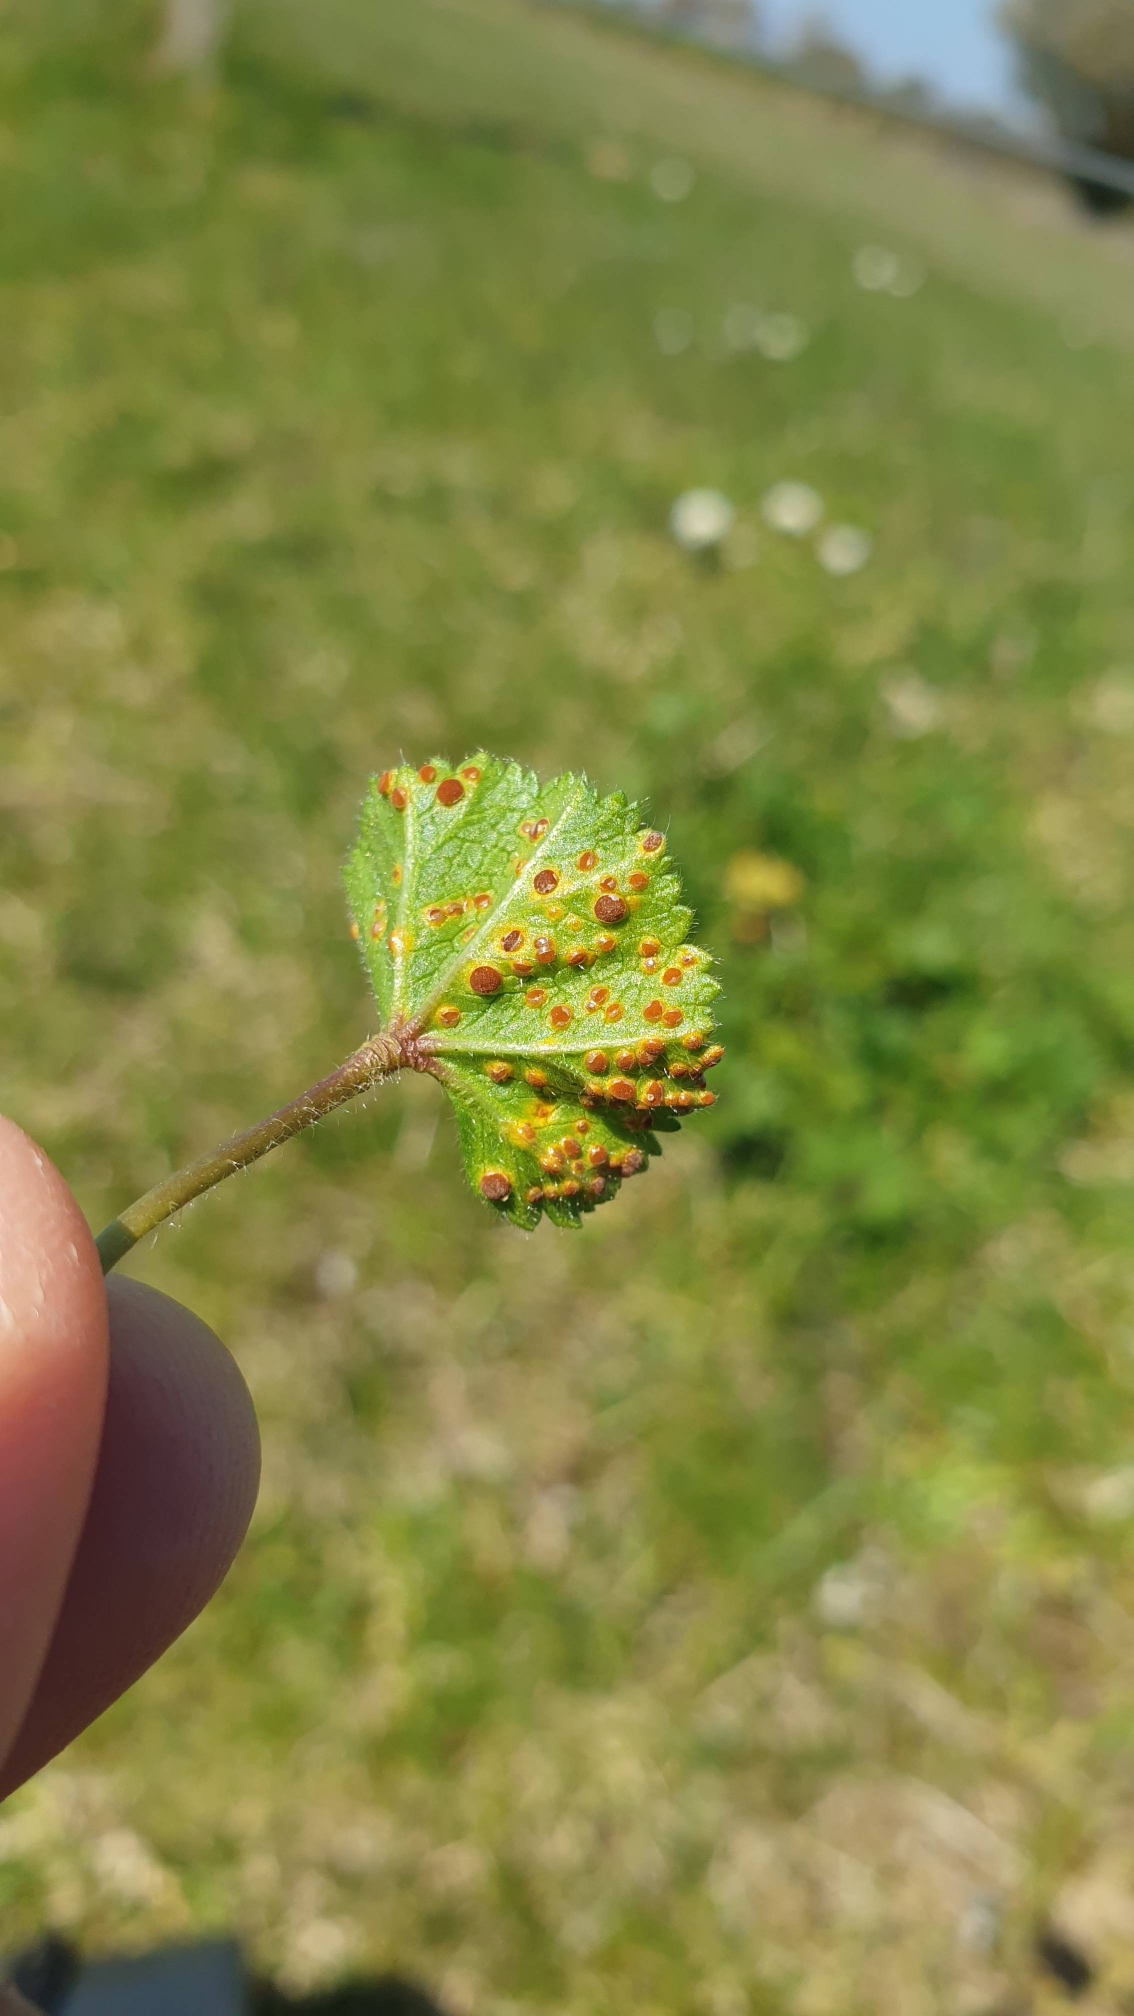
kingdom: Fungi
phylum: Basidiomycota
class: Pucciniomycetes
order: Pucciniales
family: Pucciniaceae
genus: Puccinia
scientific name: Puccinia malvacearum
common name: Stokrose-tvecellerust
